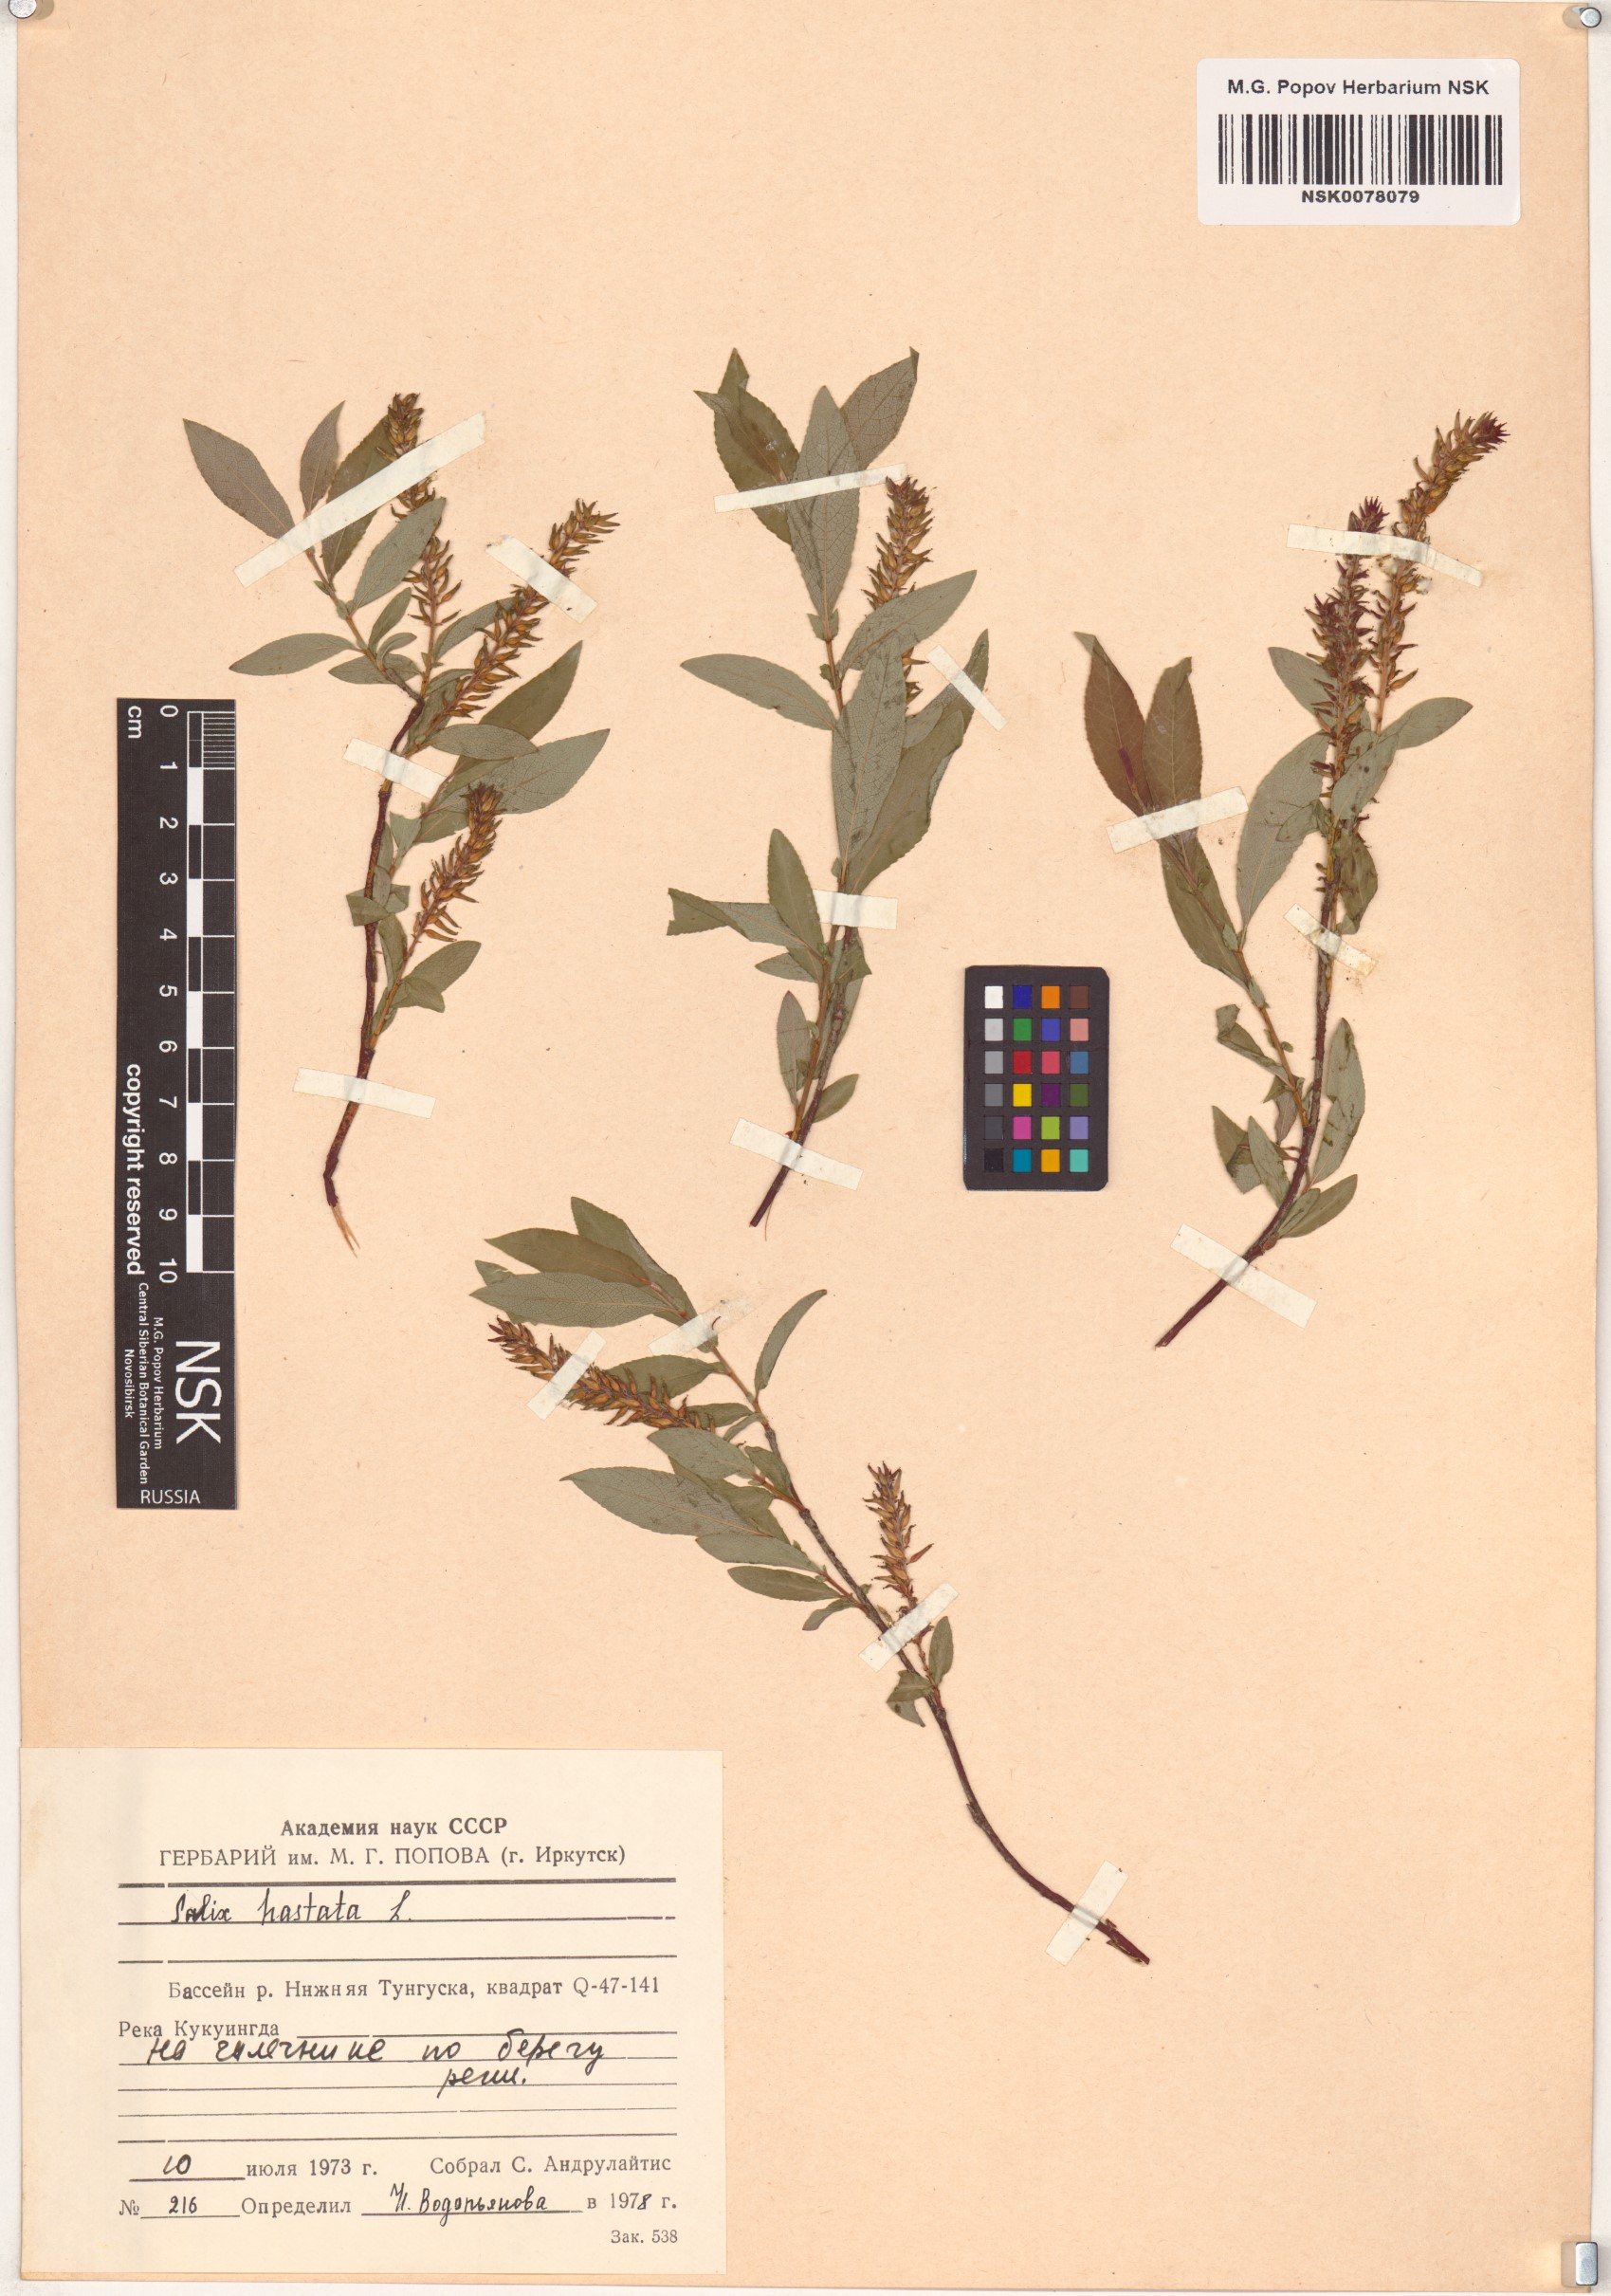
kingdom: Plantae
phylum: Tracheophyta
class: Magnoliopsida
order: Malpighiales
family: Salicaceae
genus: Salix
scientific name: Salix hastata
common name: Halberd willow
